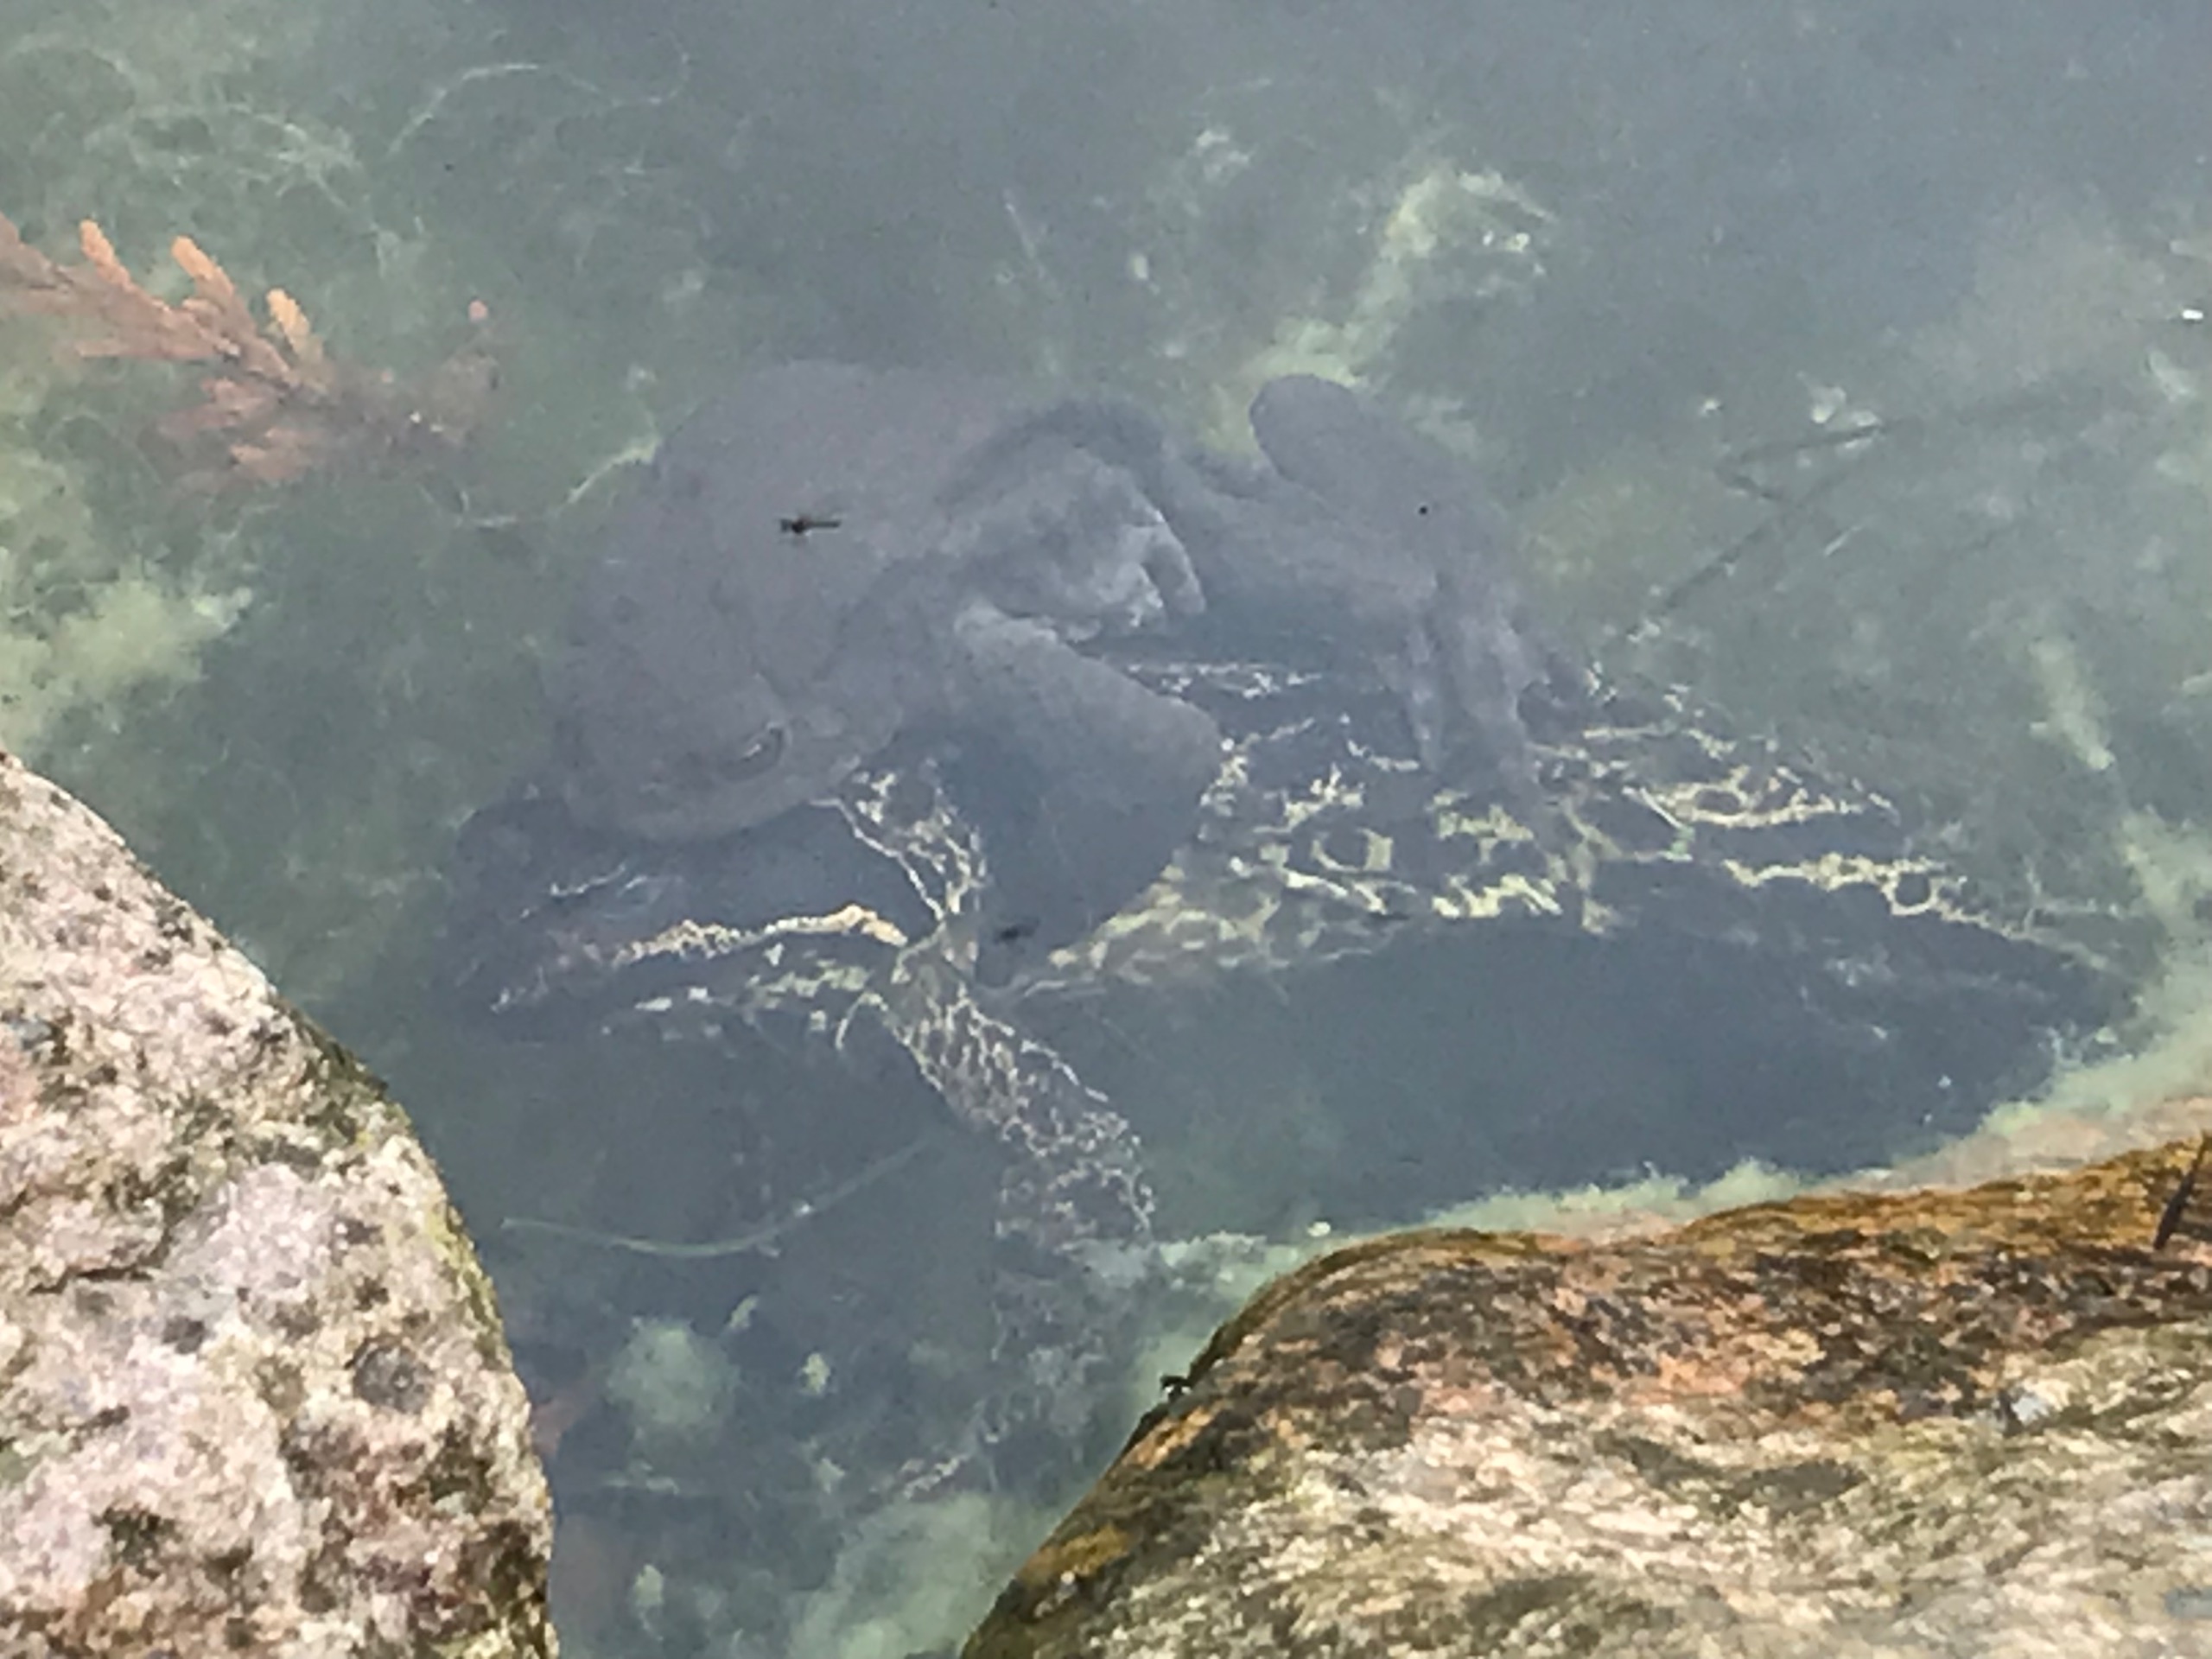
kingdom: Animalia
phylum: Chordata
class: Amphibia
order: Anura
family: Bufonidae
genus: Bufo
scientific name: Bufo bufo
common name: Skrubtudse
